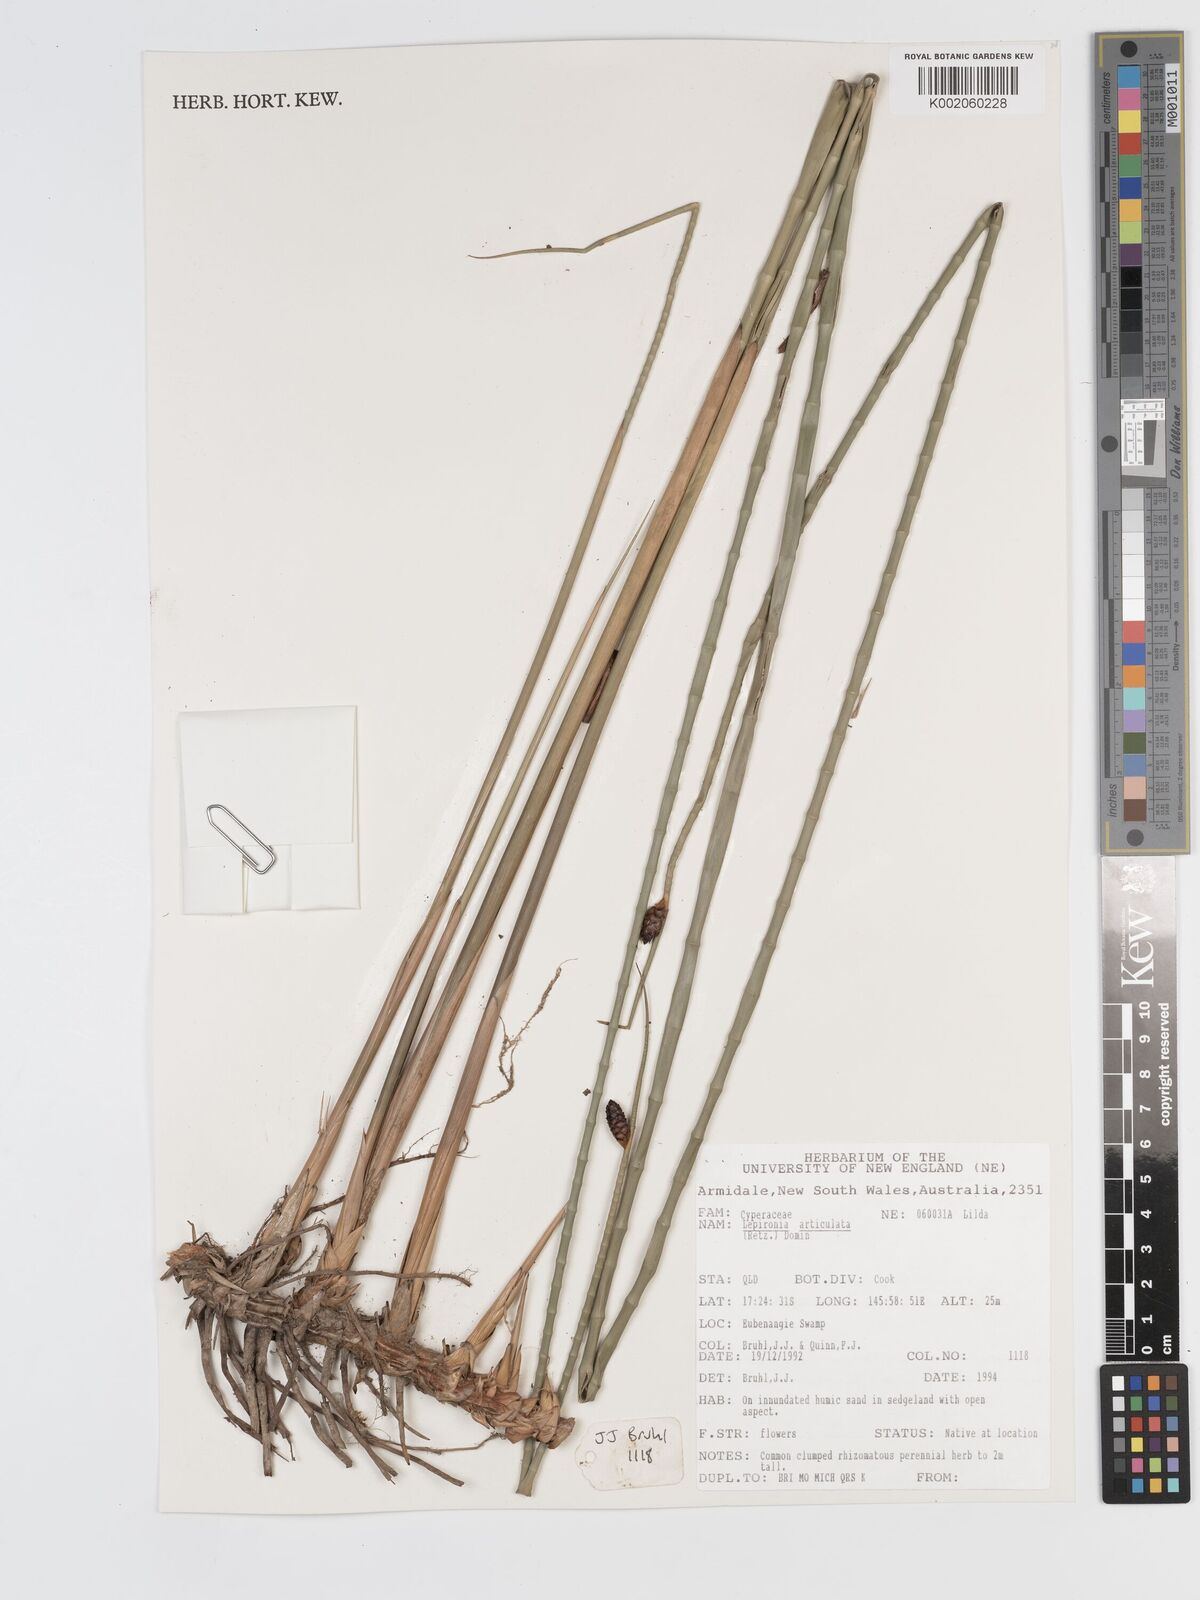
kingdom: Plantae
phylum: Tracheophyta
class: Liliopsida
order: Poales
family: Cyperaceae
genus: Lepironia
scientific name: Lepironia articulata
